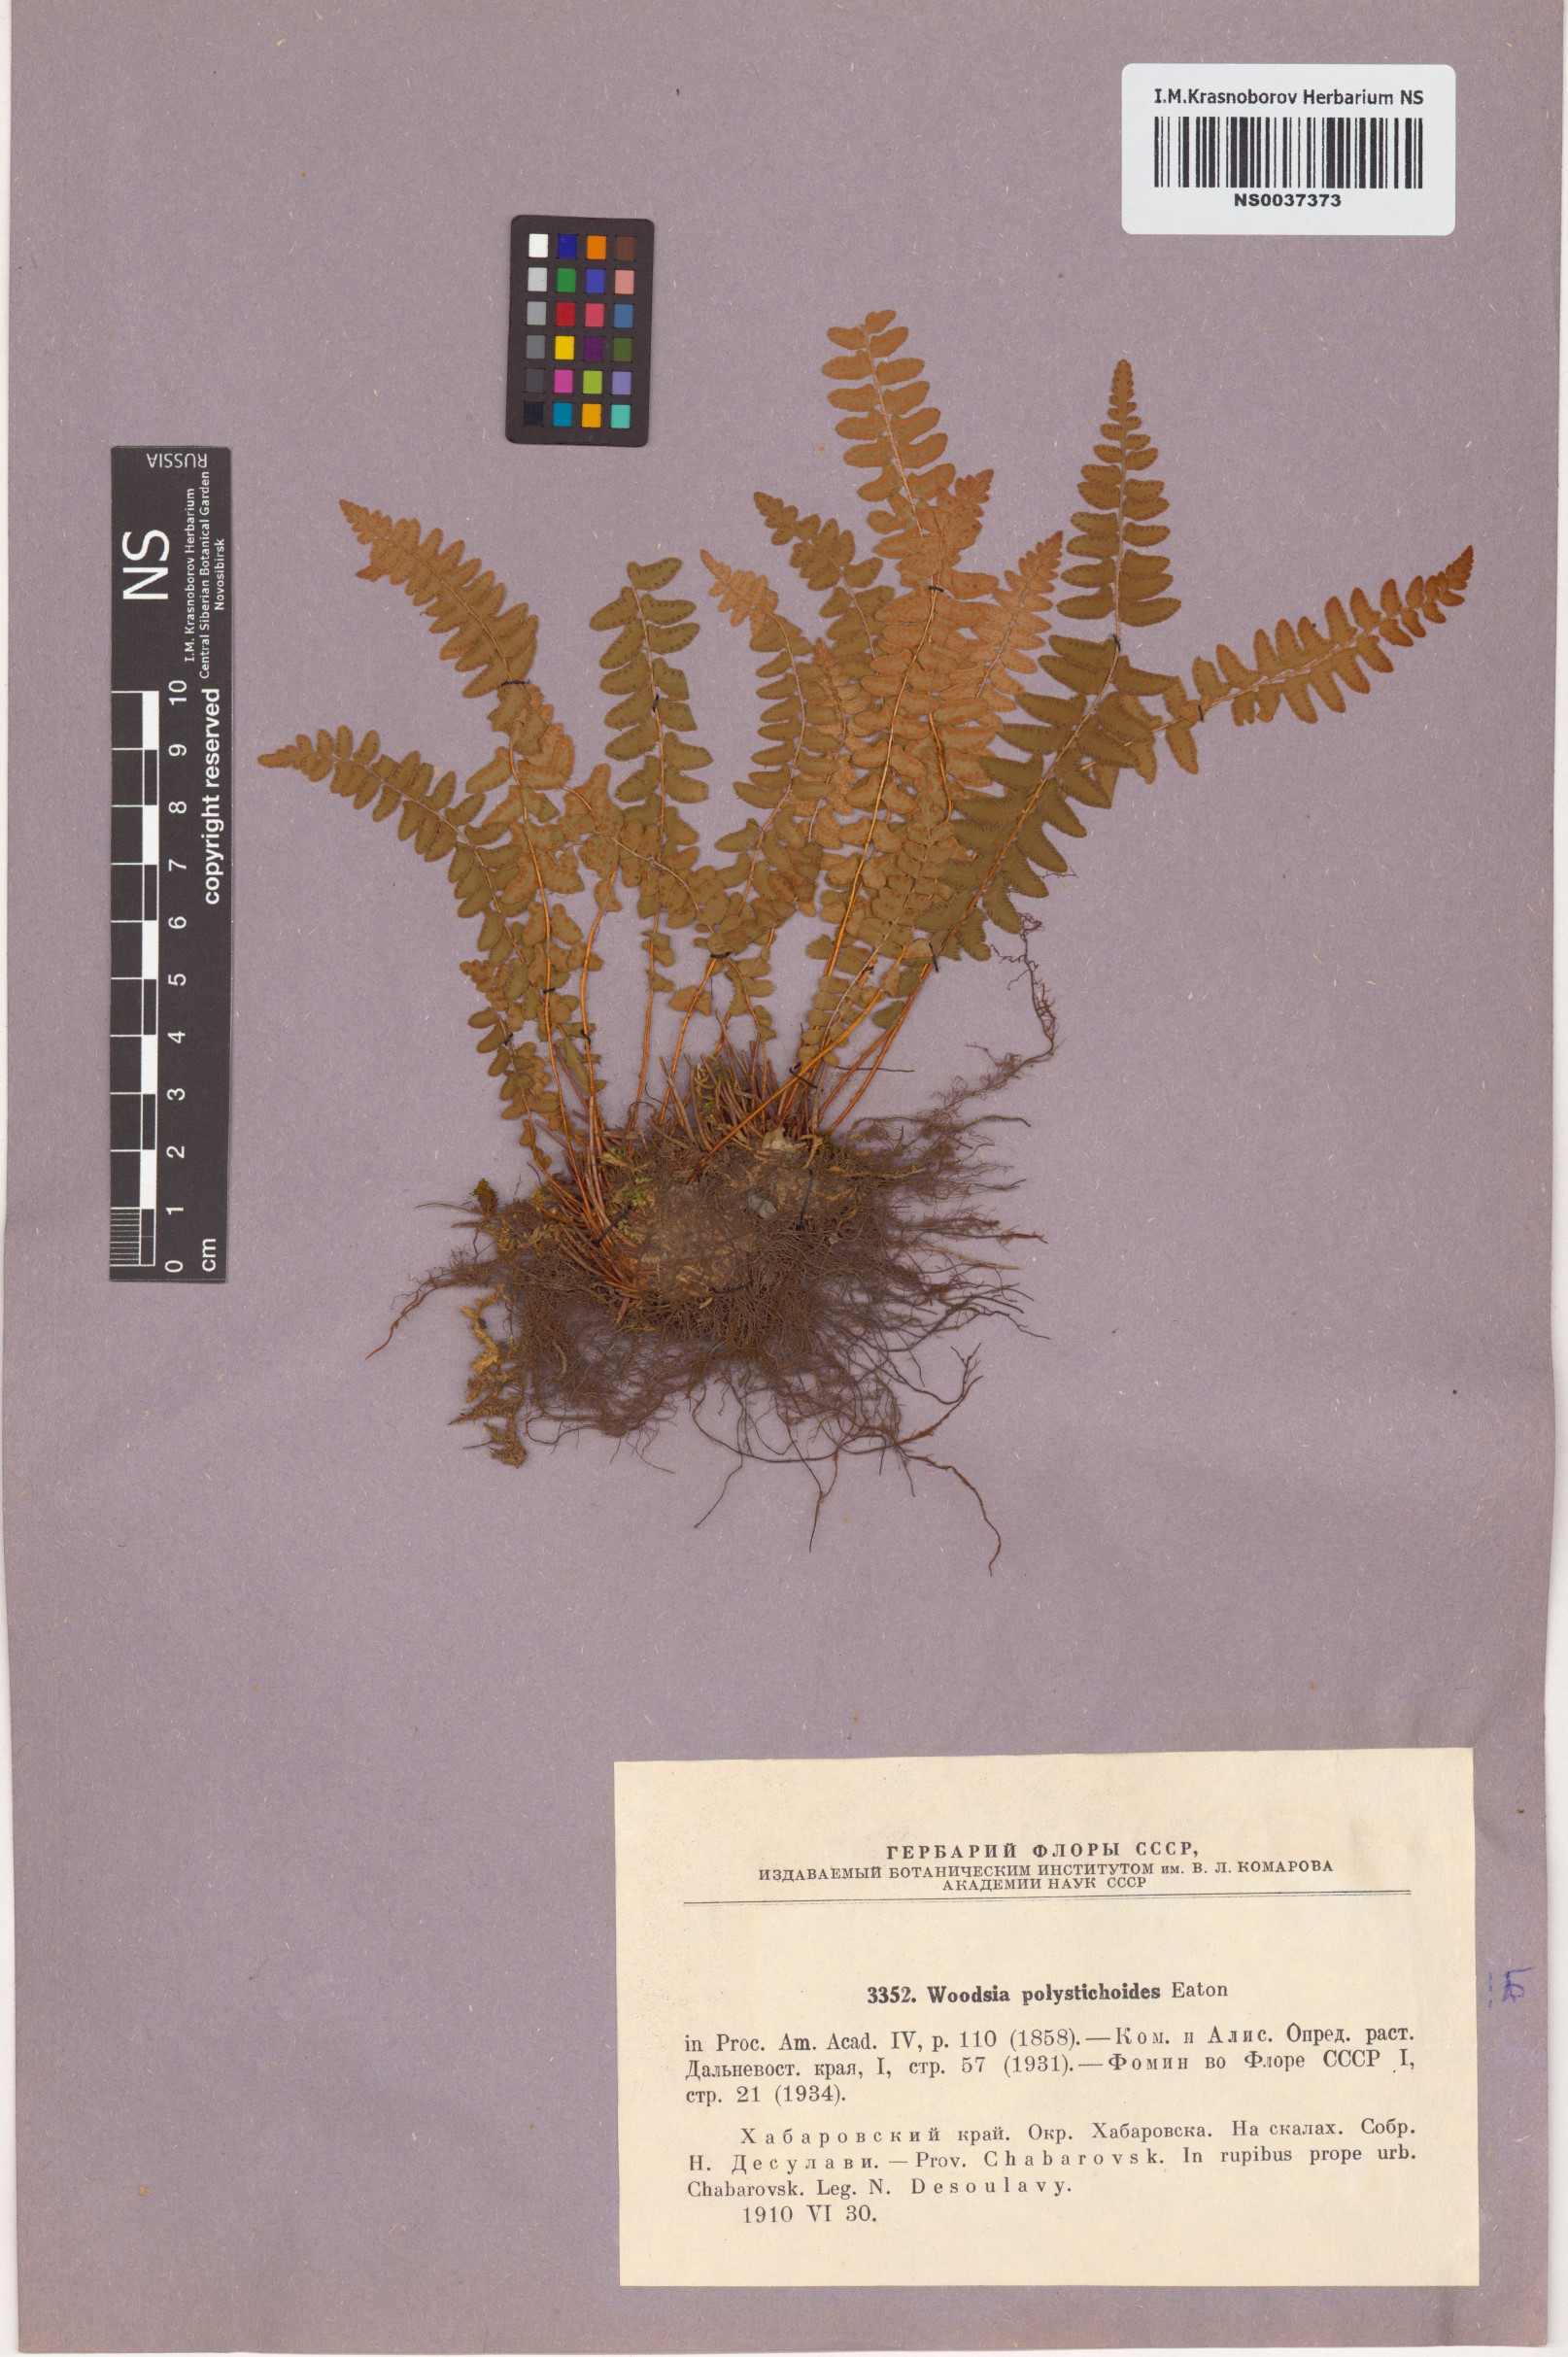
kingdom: Plantae
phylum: Tracheophyta
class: Polypodiopsida
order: Polypodiales
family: Woodsiaceae
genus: Woodsia
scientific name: Woodsia polystichoides
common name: Holly fern woodsia
